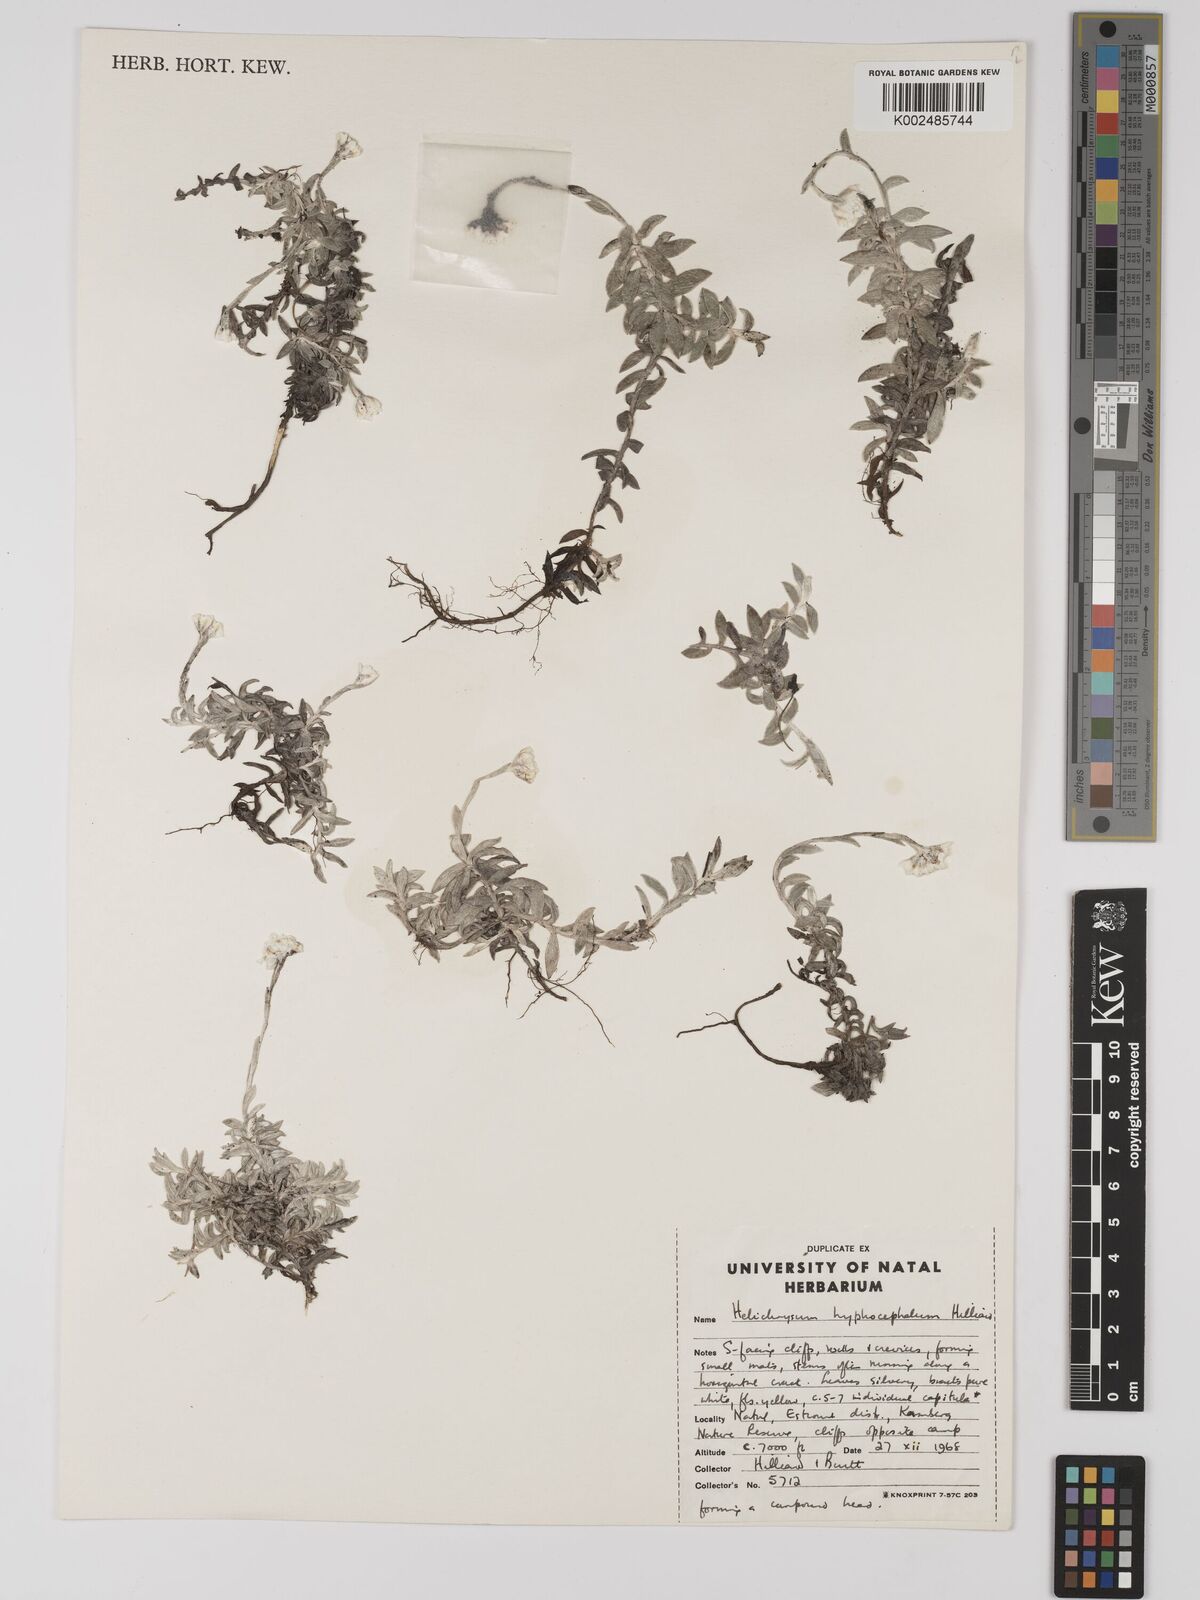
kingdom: Plantae
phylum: Tracheophyta
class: Magnoliopsida
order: Asterales
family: Asteraceae
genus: Helichrysum
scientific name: Helichrysum hyphocephalum
